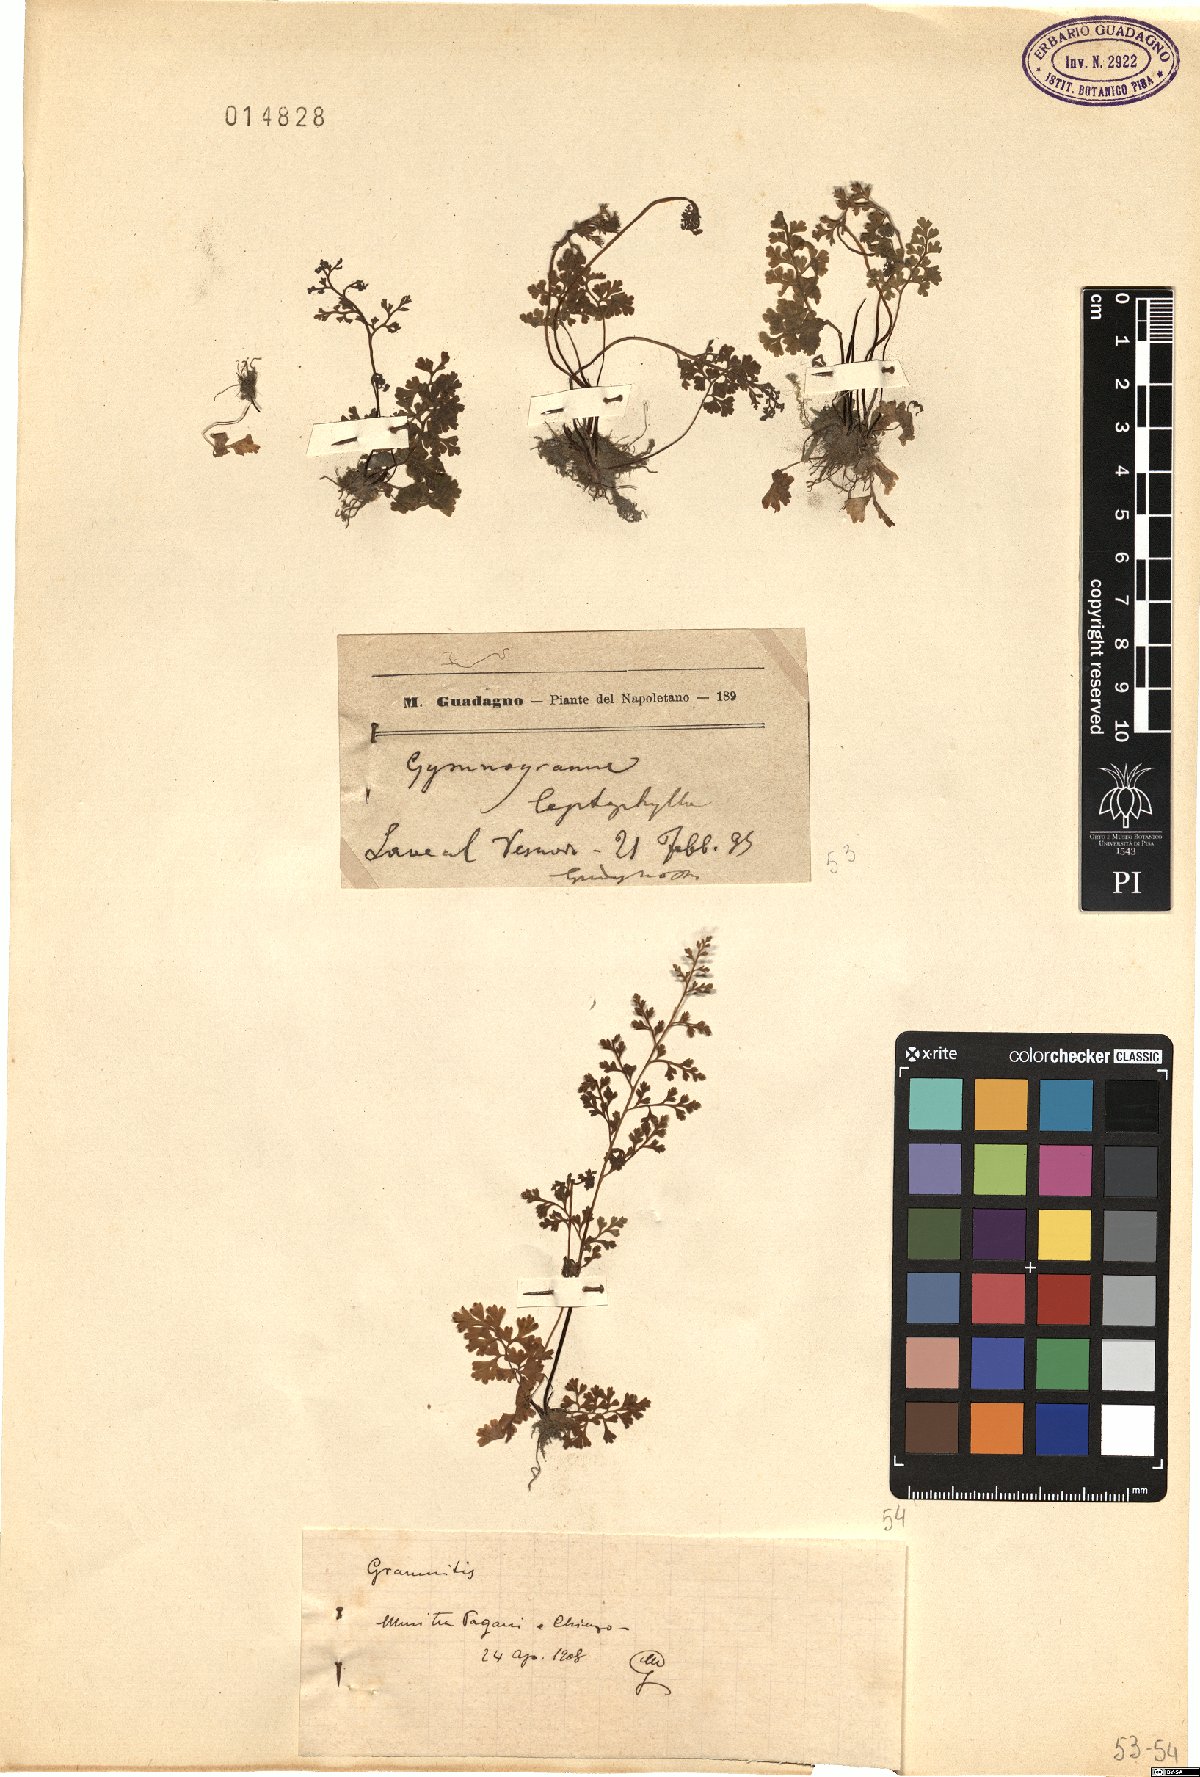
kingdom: Plantae
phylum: Tracheophyta
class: Polypodiopsida
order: Polypodiales
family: Pteridaceae
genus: Anogramma
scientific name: Anogramma leptophylla
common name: Jersey fern
